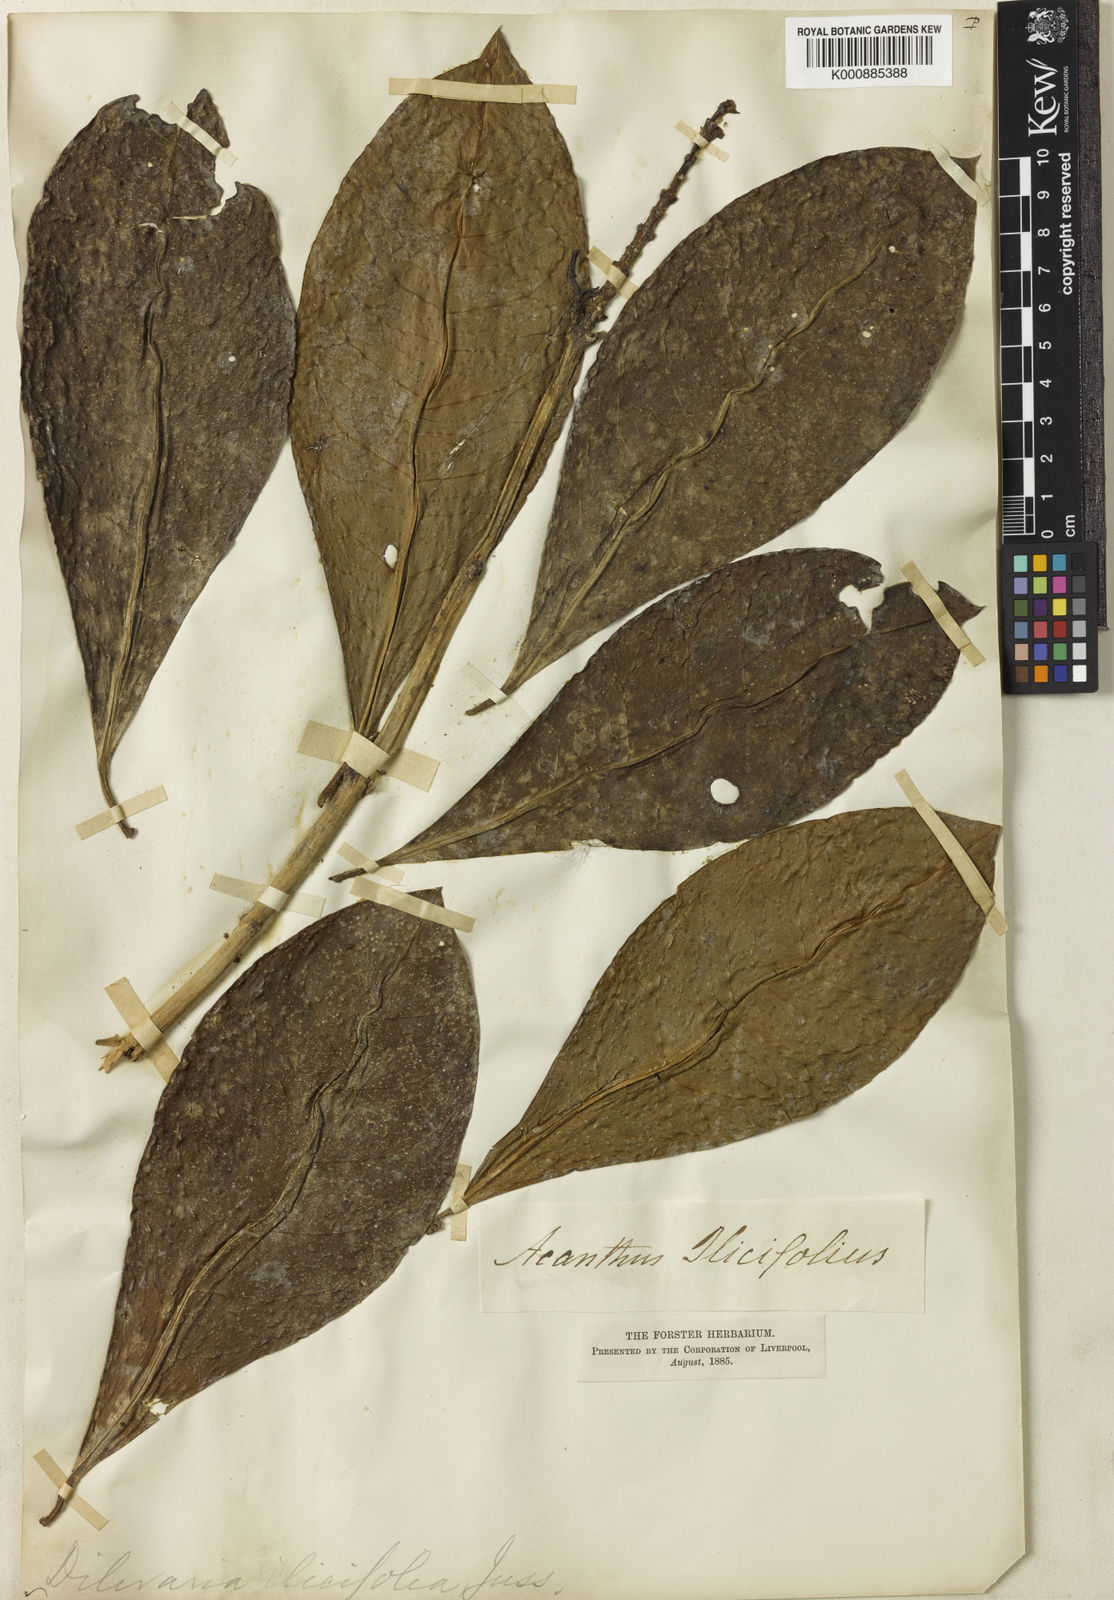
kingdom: Plantae
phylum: Tracheophyta
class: Magnoliopsida
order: Lamiales
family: Acanthaceae
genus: Acanthus
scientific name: Acanthus ilicifolius
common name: Holy mangrove
